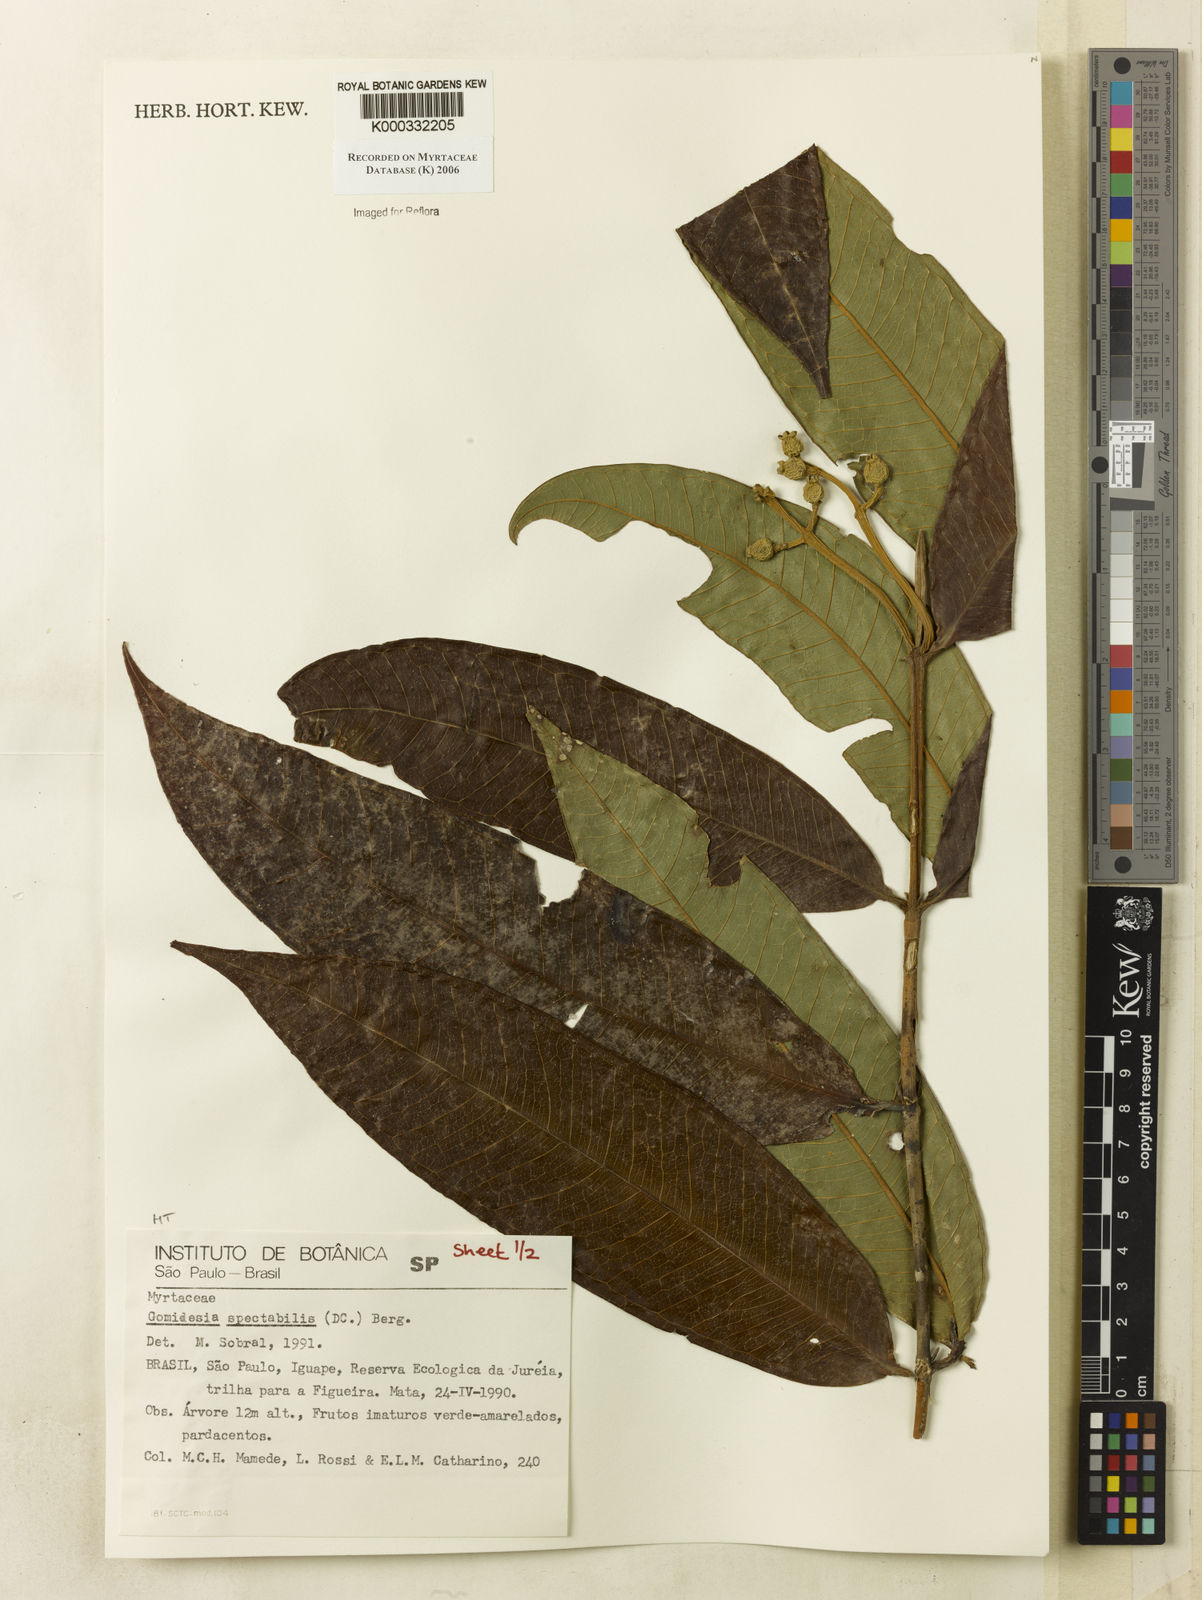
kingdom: Plantae
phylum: Tracheophyta
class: Magnoliopsida
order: Myrtales
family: Myrtaceae
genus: Myrcia
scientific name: Myrcia spectabilis
